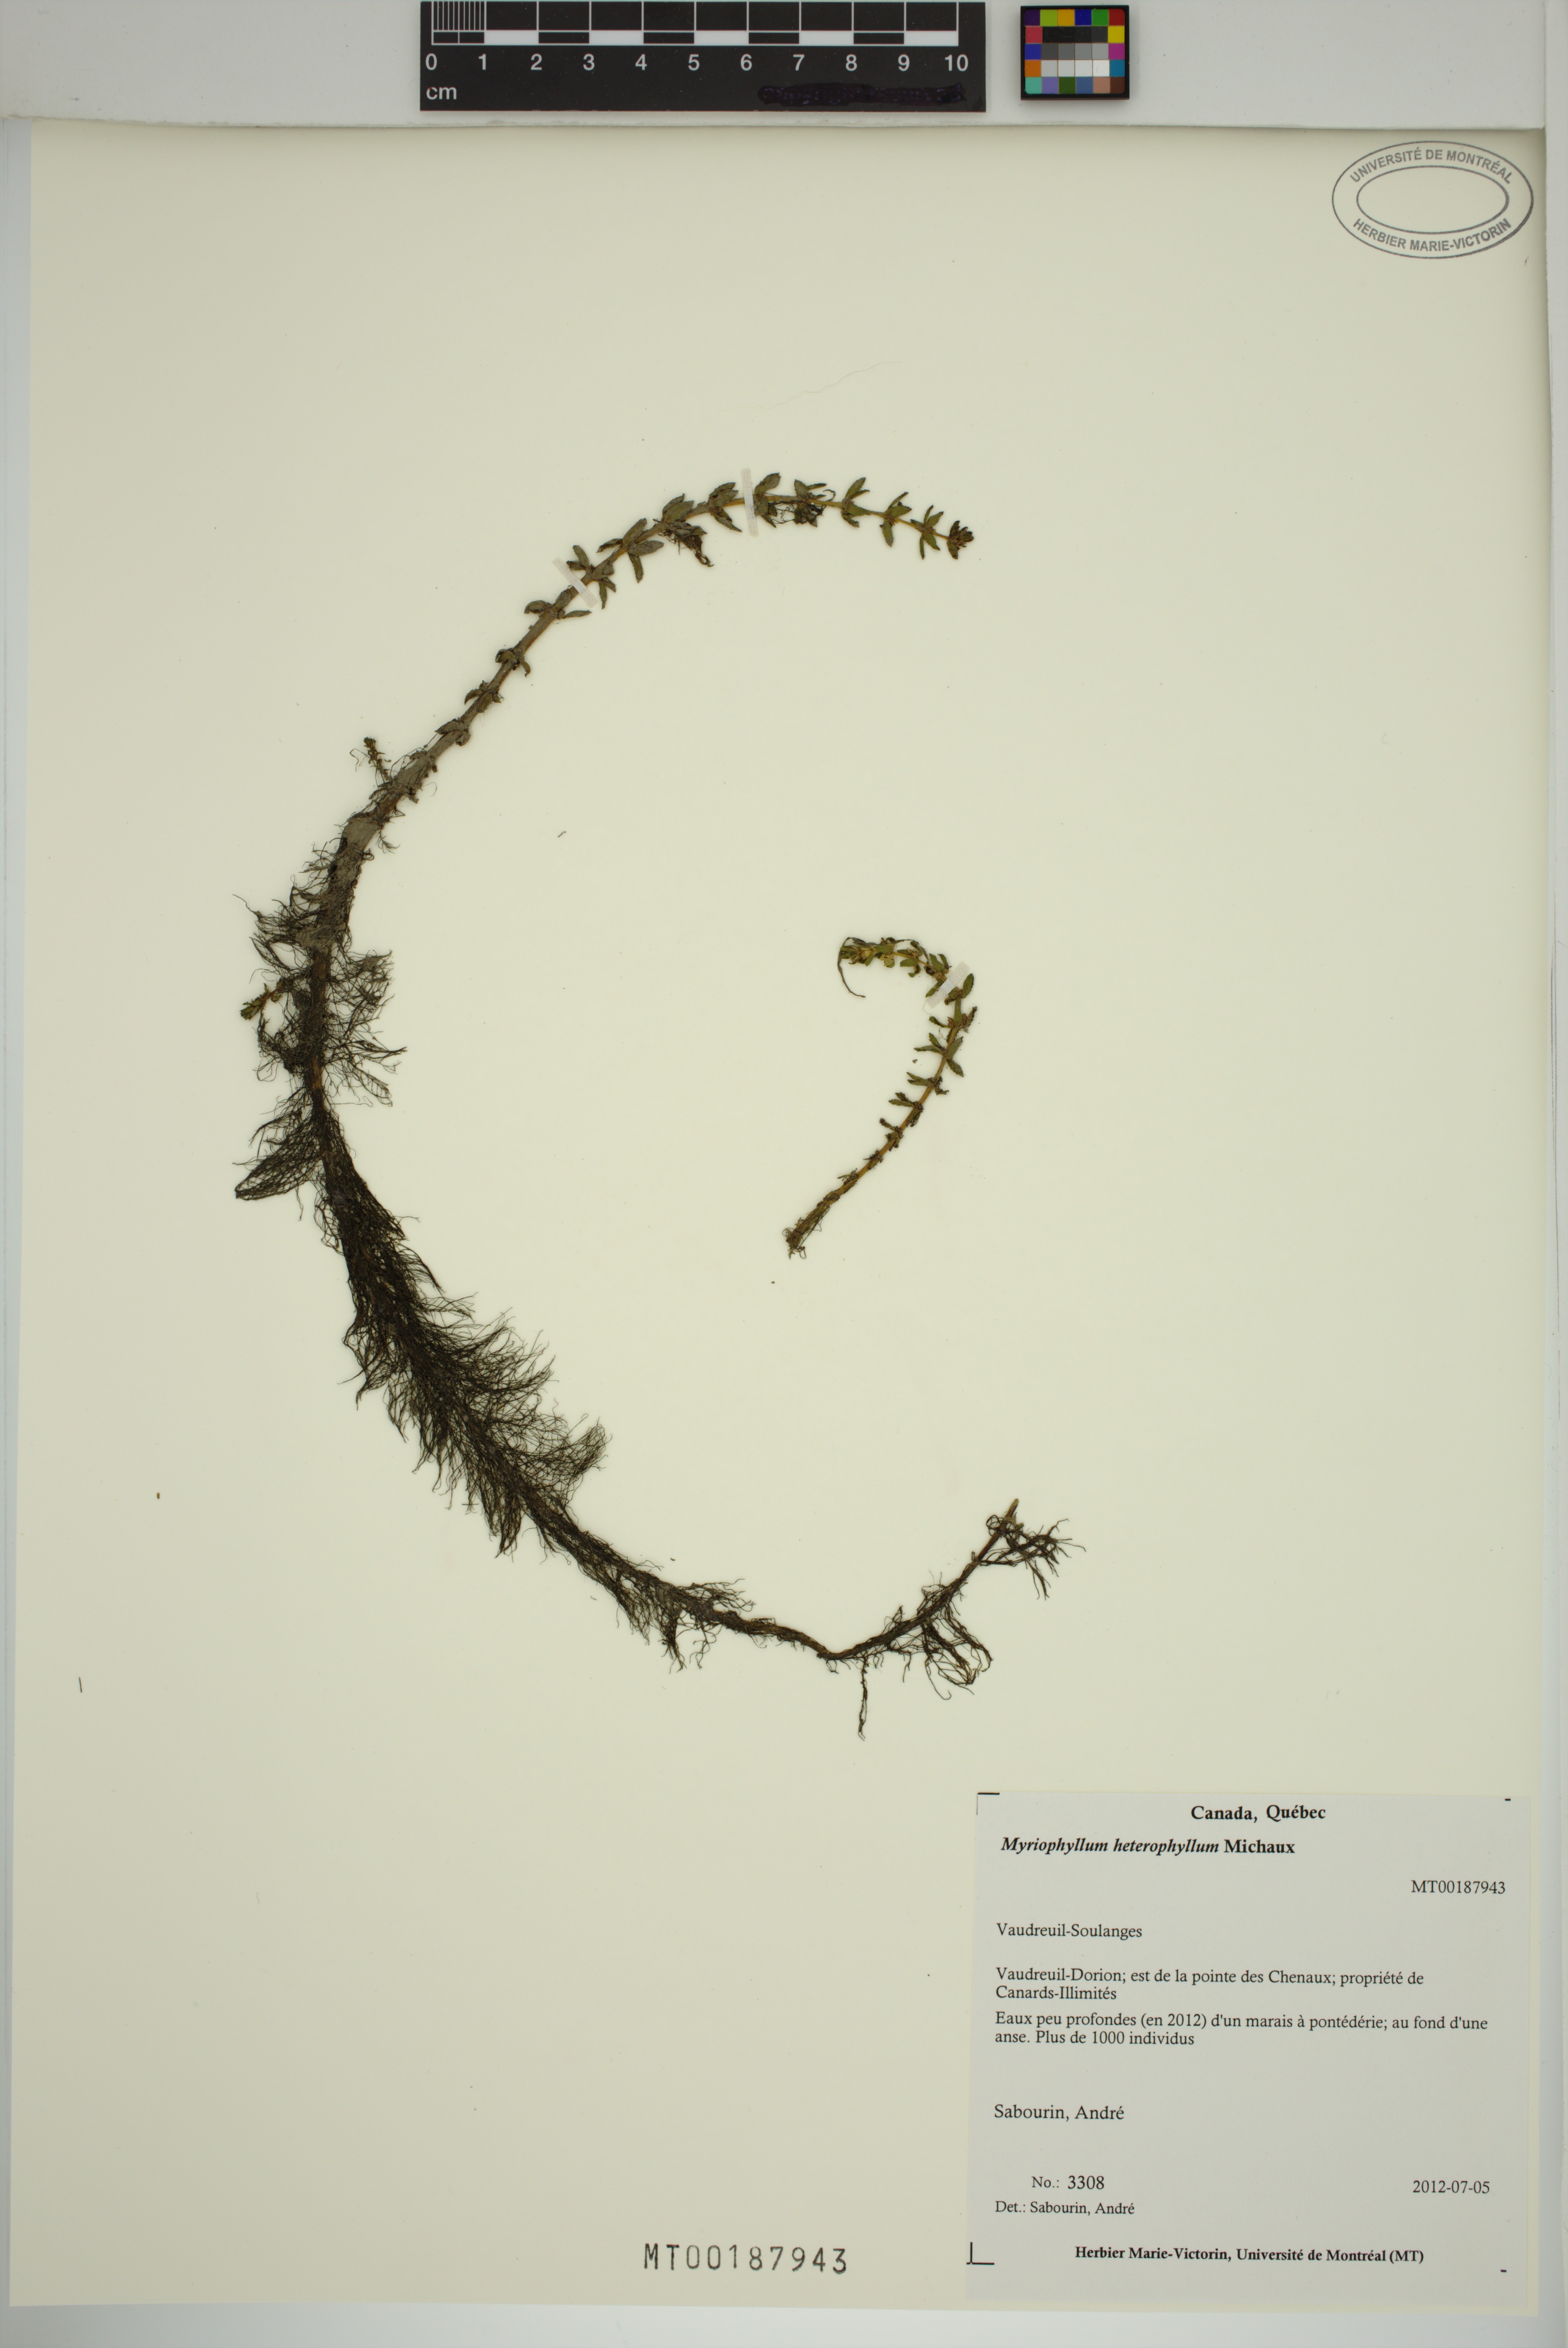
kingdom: Plantae
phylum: Tracheophyta
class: Magnoliopsida
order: Saxifragales
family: Haloragaceae
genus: Myriophyllum
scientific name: Myriophyllum heterophyllum
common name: Variable watermilfoil
